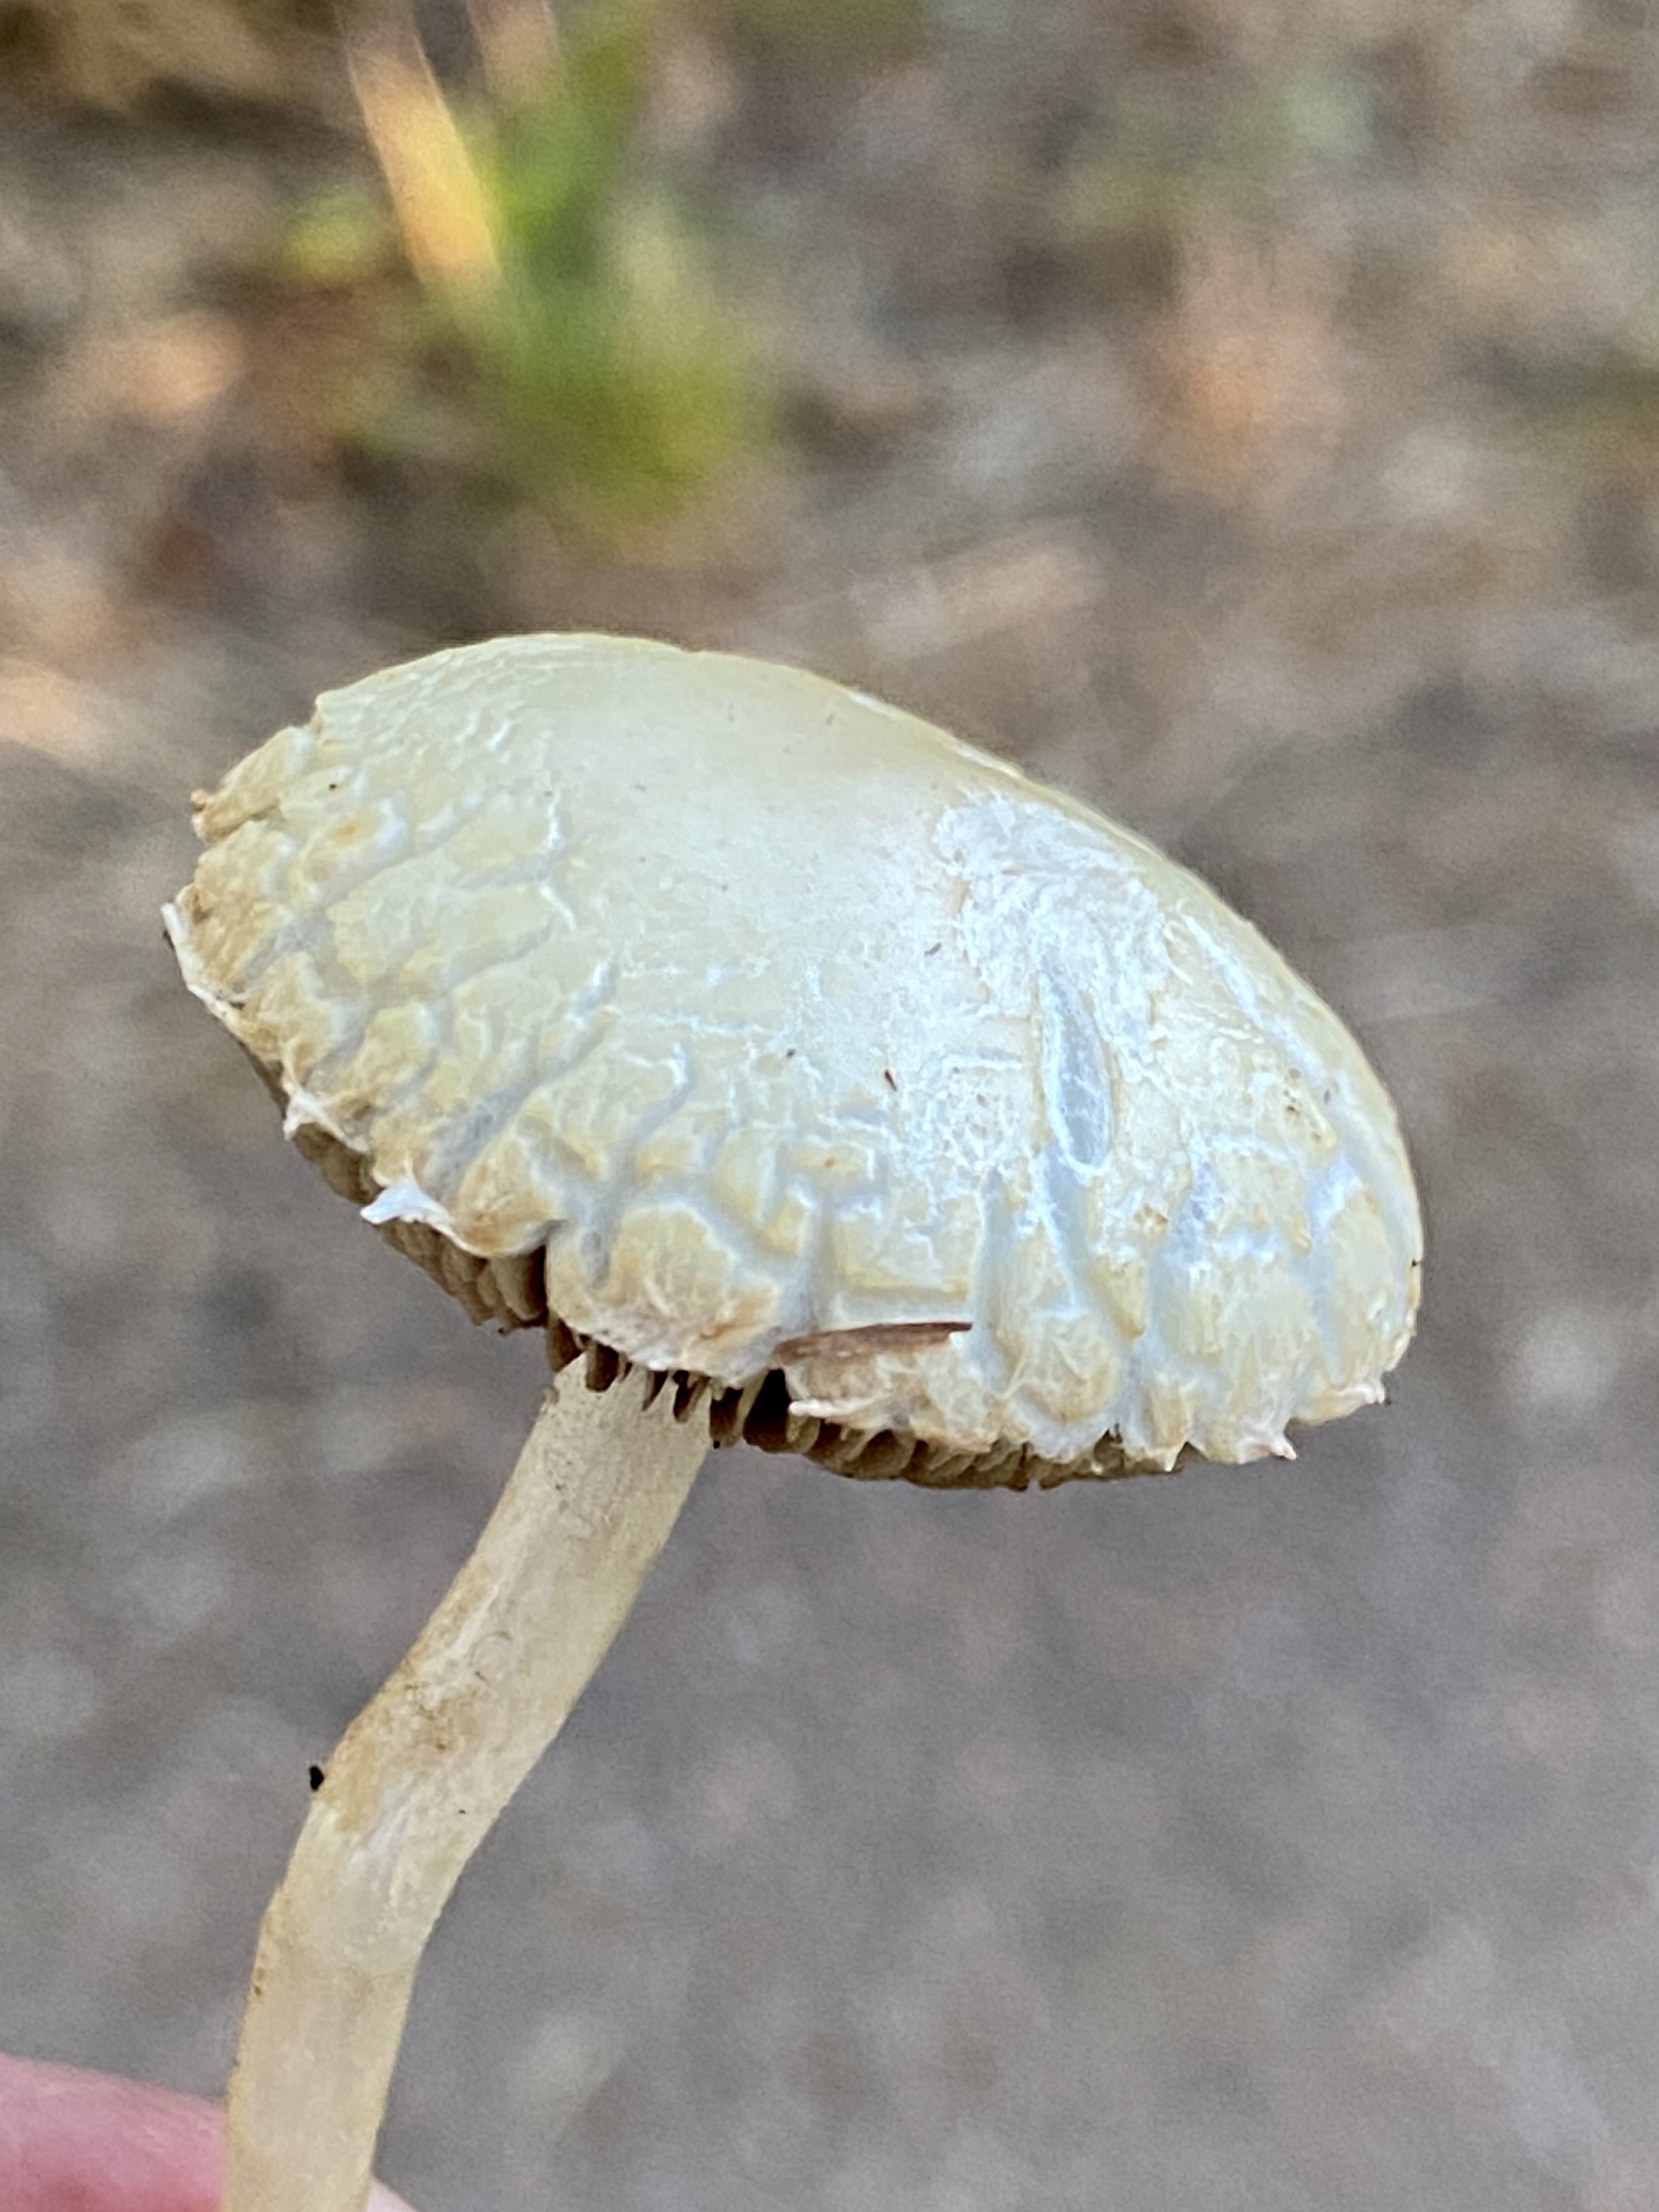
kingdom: Fungi
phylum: Basidiomycota
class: Agaricomycetes
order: Agaricales
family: Strophariaceae
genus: Agrocybe
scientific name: Agrocybe
